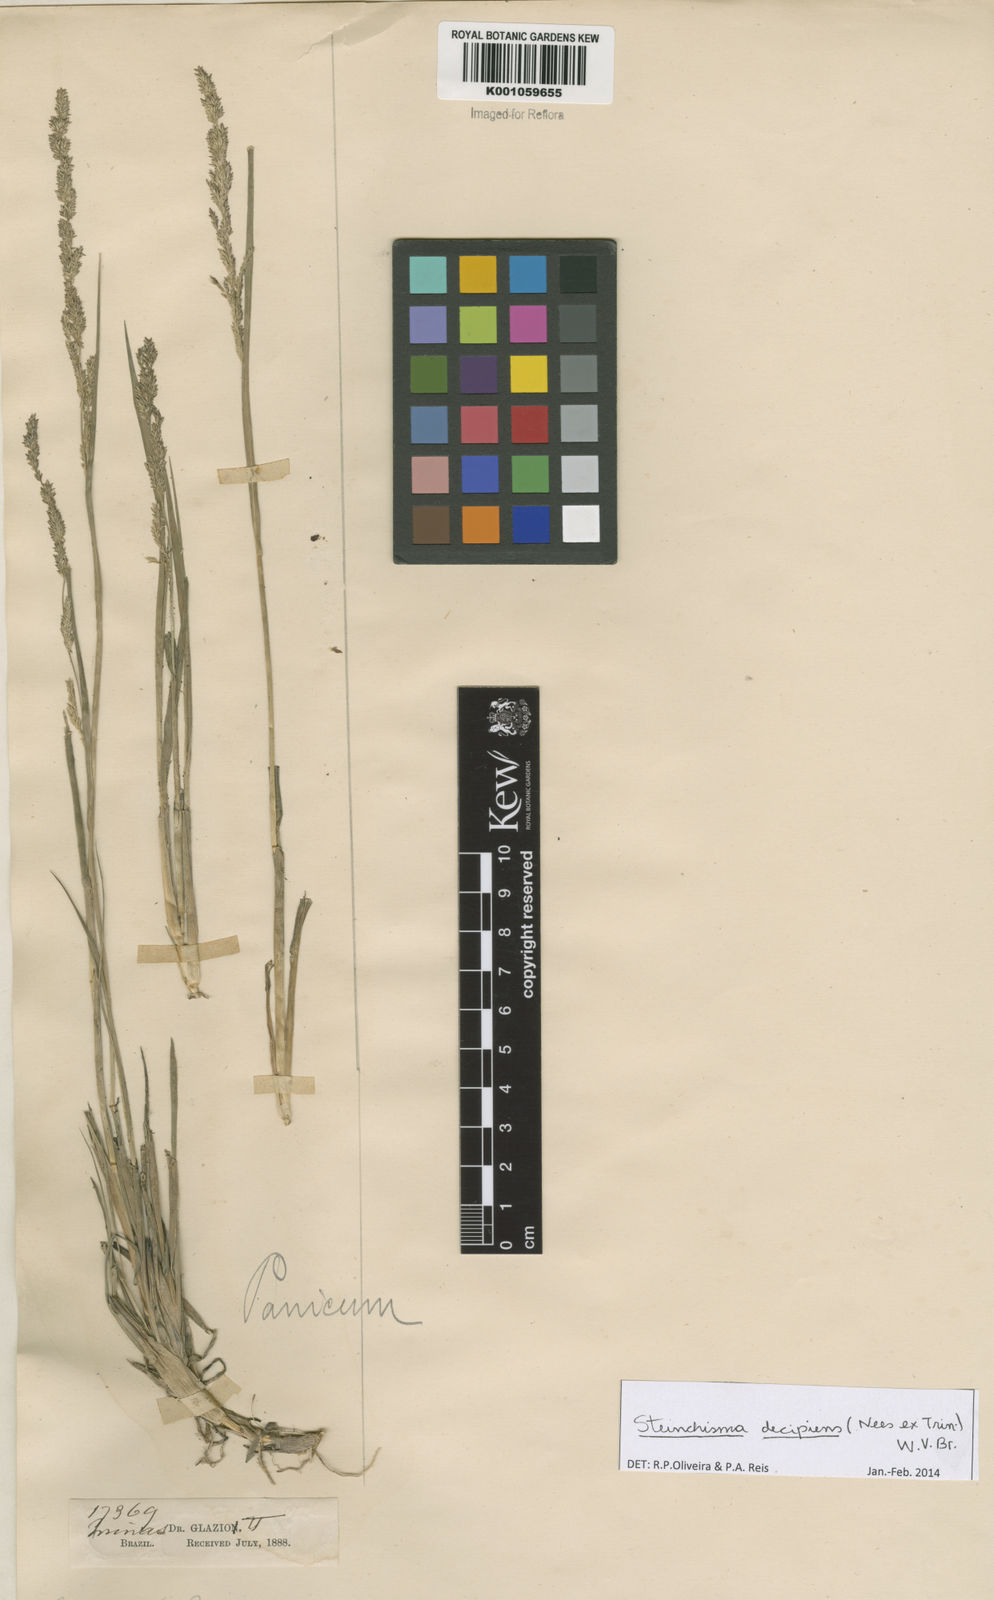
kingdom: Plantae
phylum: Tracheophyta
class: Liliopsida
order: Poales
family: Poaceae
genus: Steinchisma
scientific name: Steinchisma decipiens
